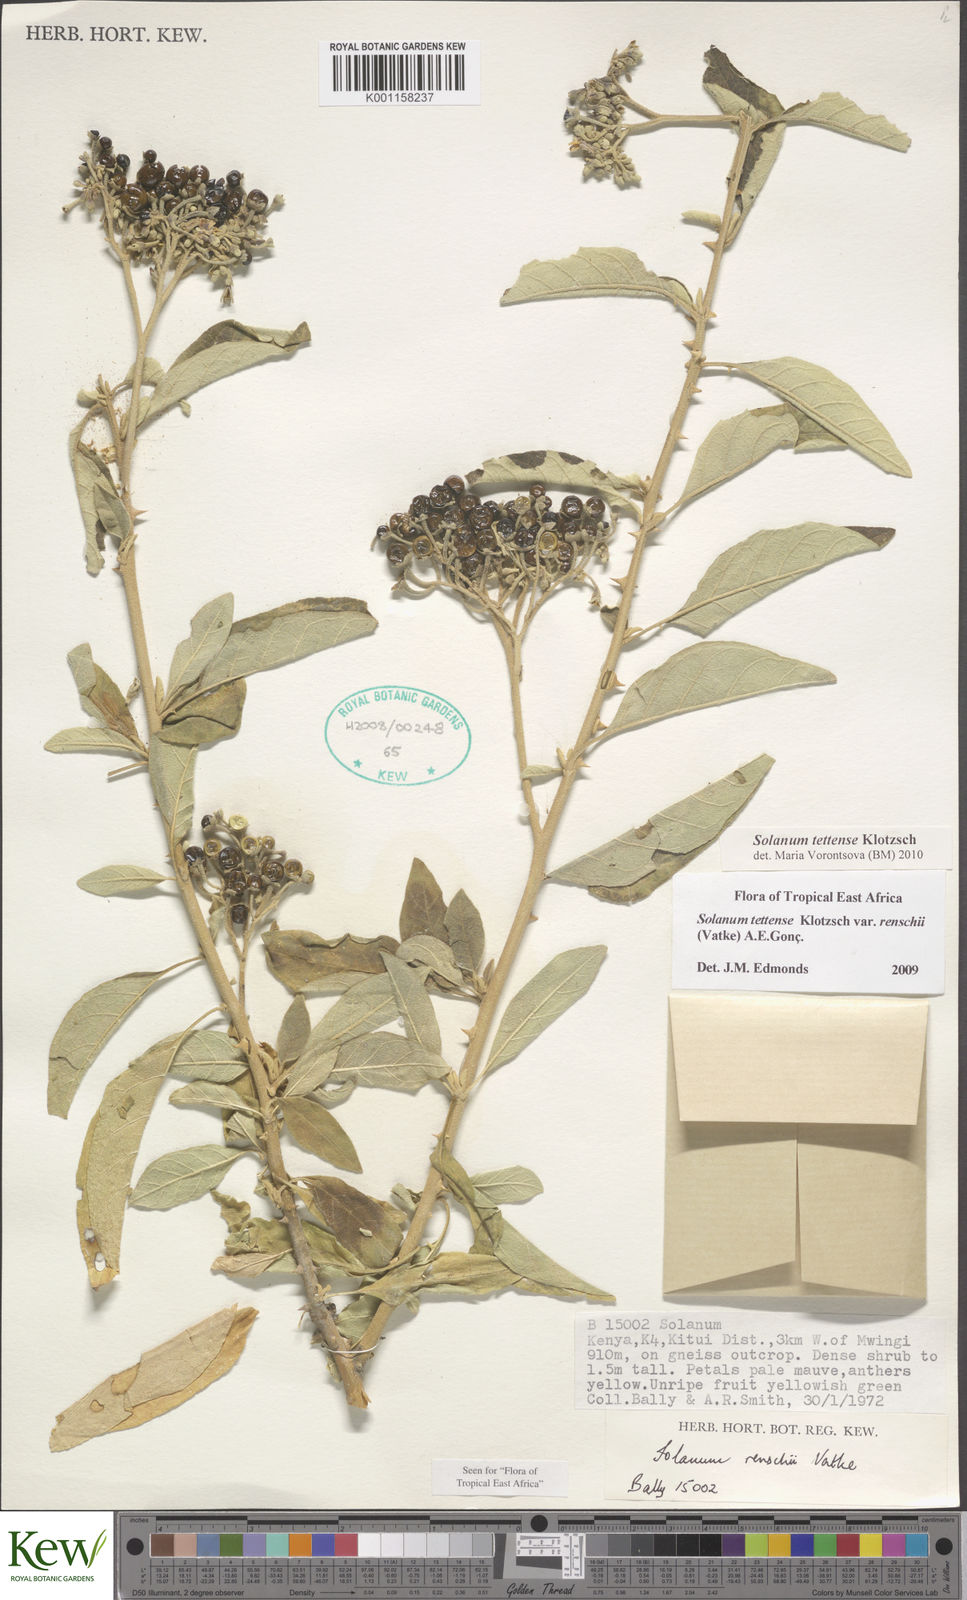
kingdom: Plantae
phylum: Tracheophyta
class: Magnoliopsida
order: Solanales
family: Solanaceae
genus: Solanum
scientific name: Solanum tettense
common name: Mozambique bitter apple
